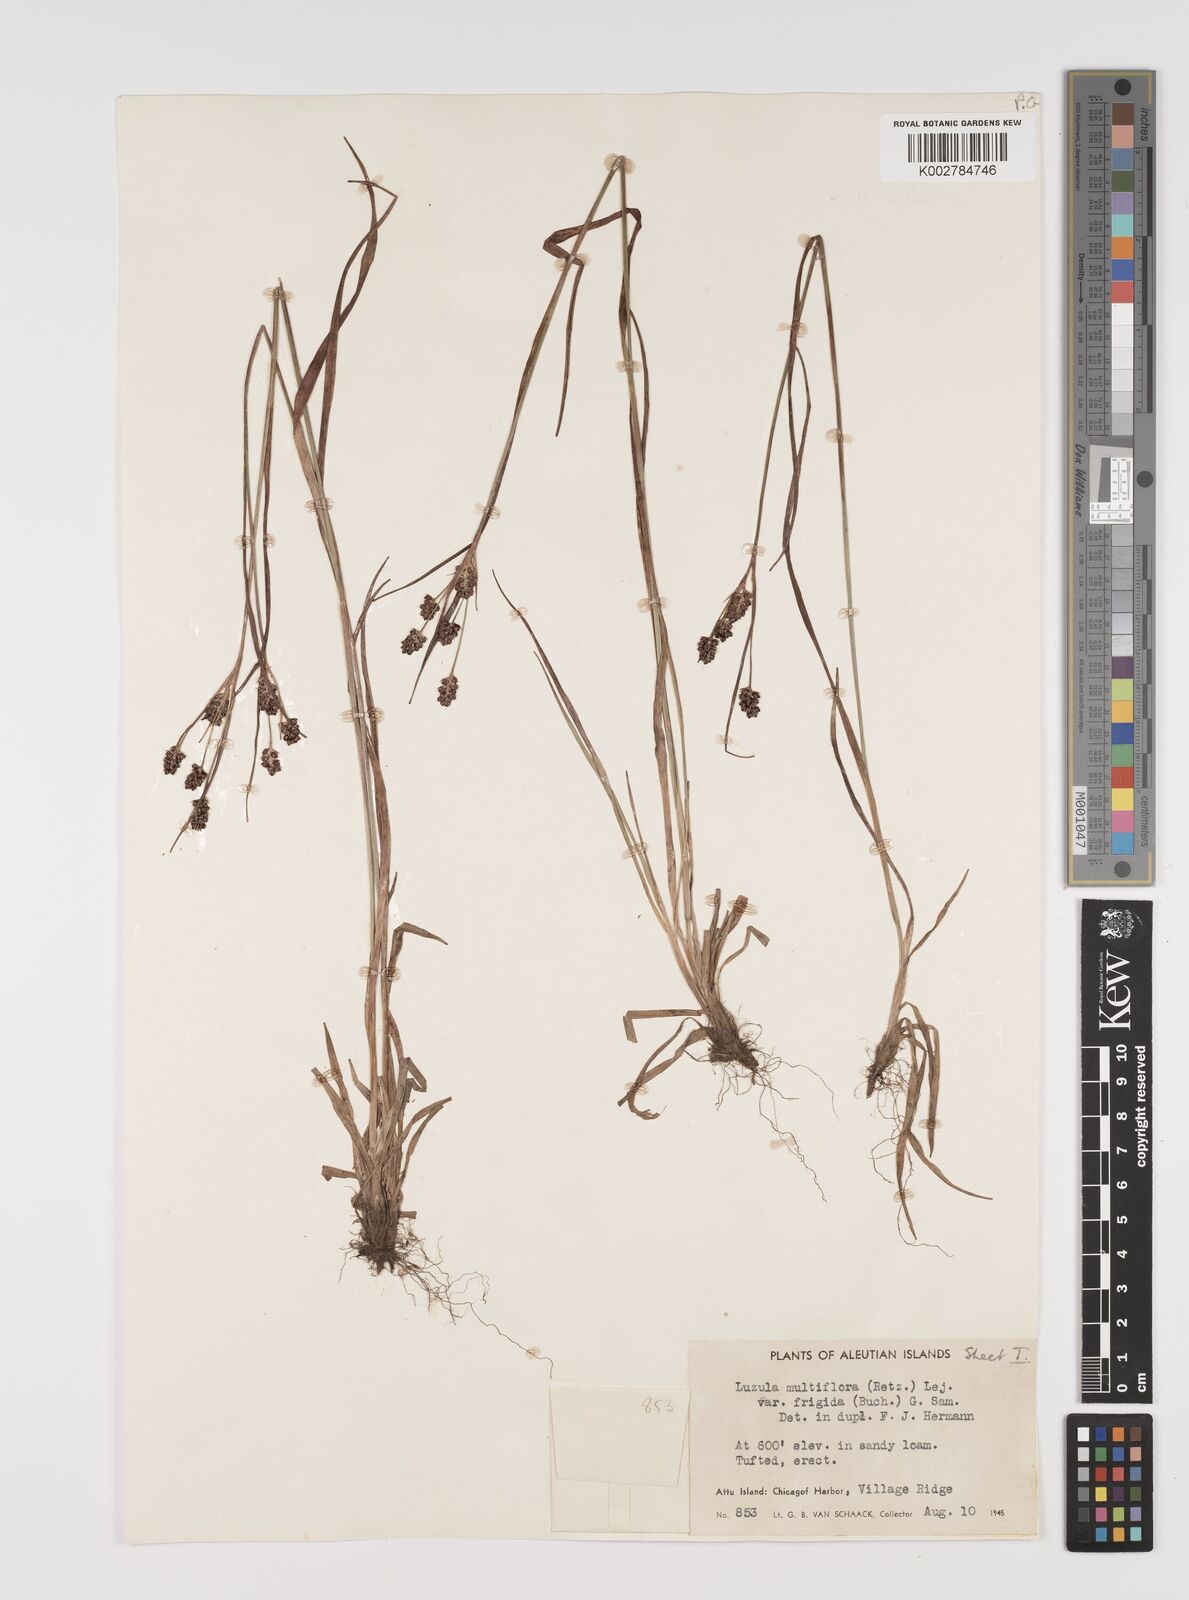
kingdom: Plantae
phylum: Tracheophyta
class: Liliopsida
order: Poales
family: Juncaceae
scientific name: Juncaceae
